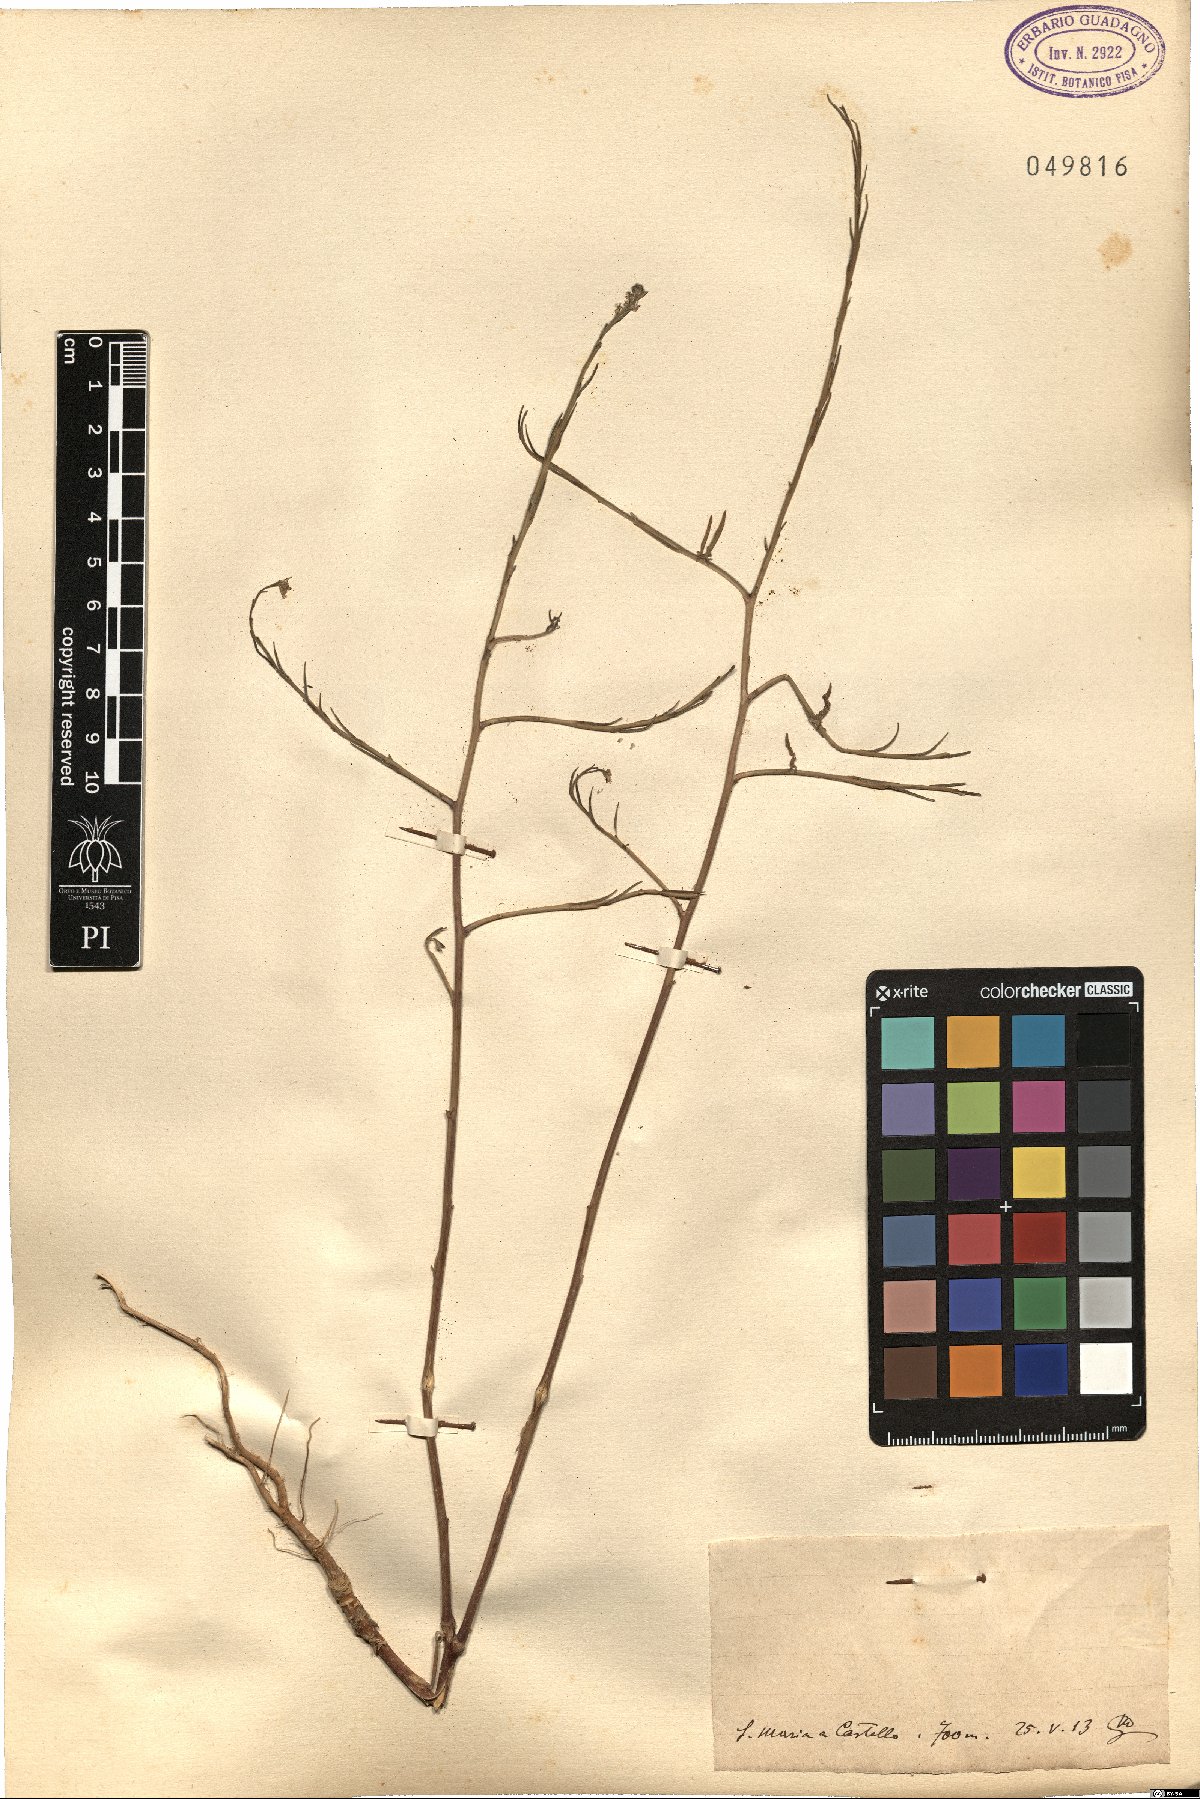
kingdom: Plantae
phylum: Tracheophyta
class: Magnoliopsida
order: Brassicales
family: Brassicaceae
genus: Sisymbrium
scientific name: Sisymbrium
